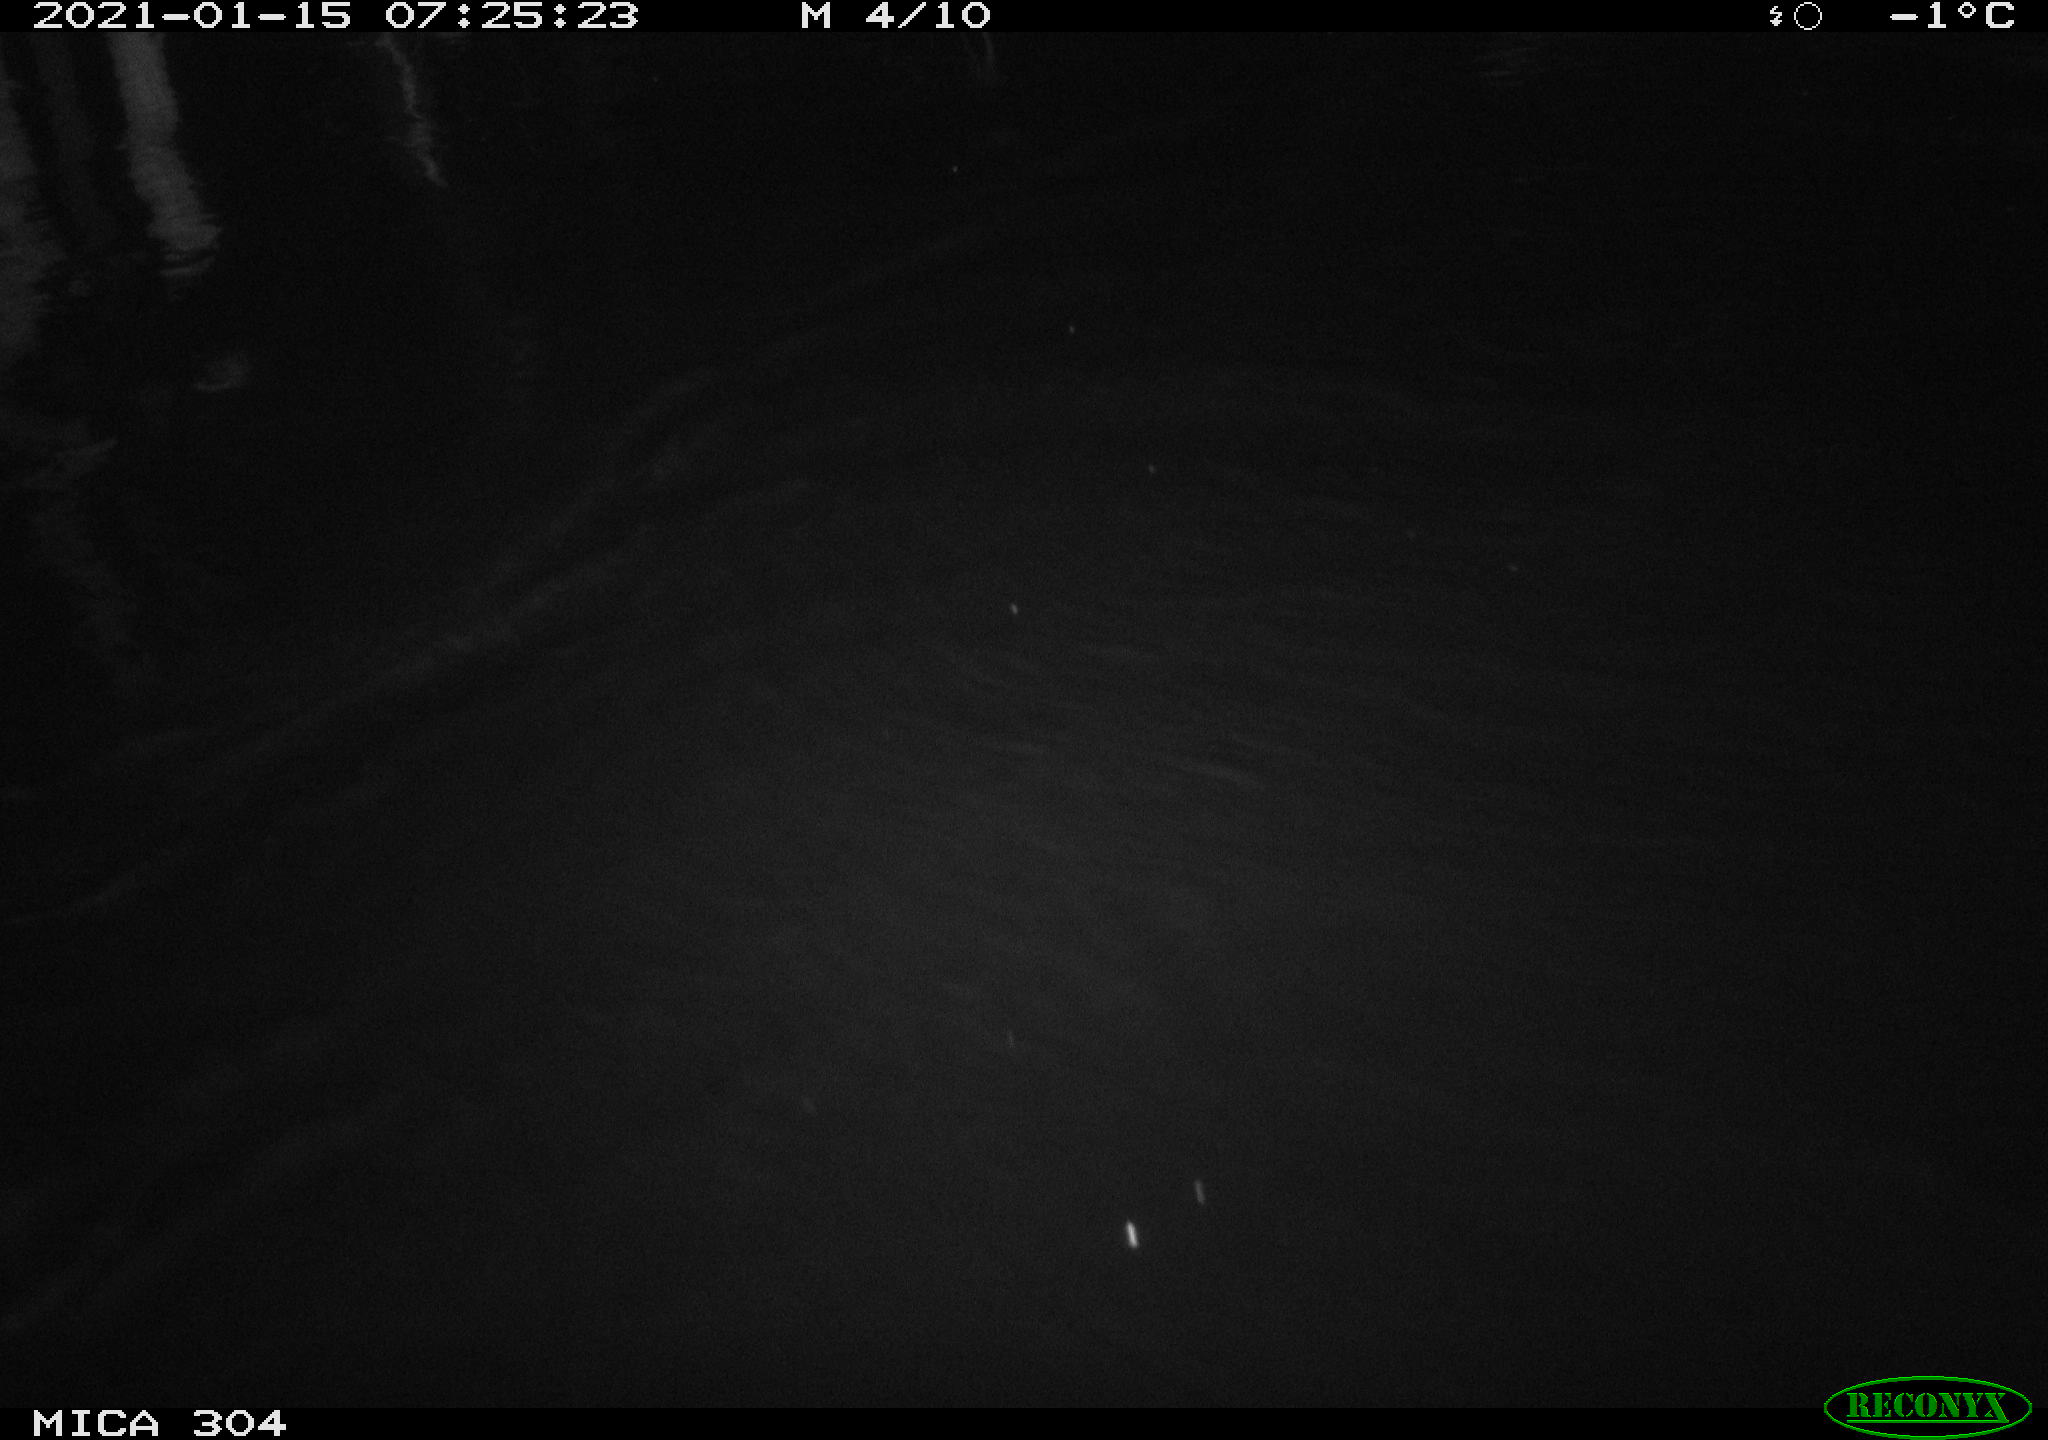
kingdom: Animalia
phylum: Chordata
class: Aves
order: Anseriformes
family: Anatidae
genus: Anas
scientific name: Anas platyrhynchos
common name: Mallard
